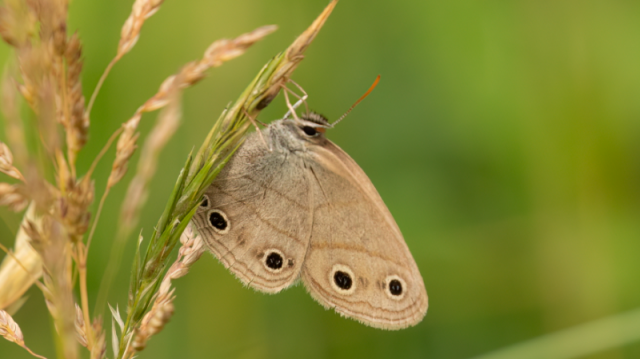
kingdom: Animalia
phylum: Arthropoda
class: Insecta
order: Lepidoptera
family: Nymphalidae
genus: Euptychia
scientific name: Euptychia cymela
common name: Little Wood Satyr
